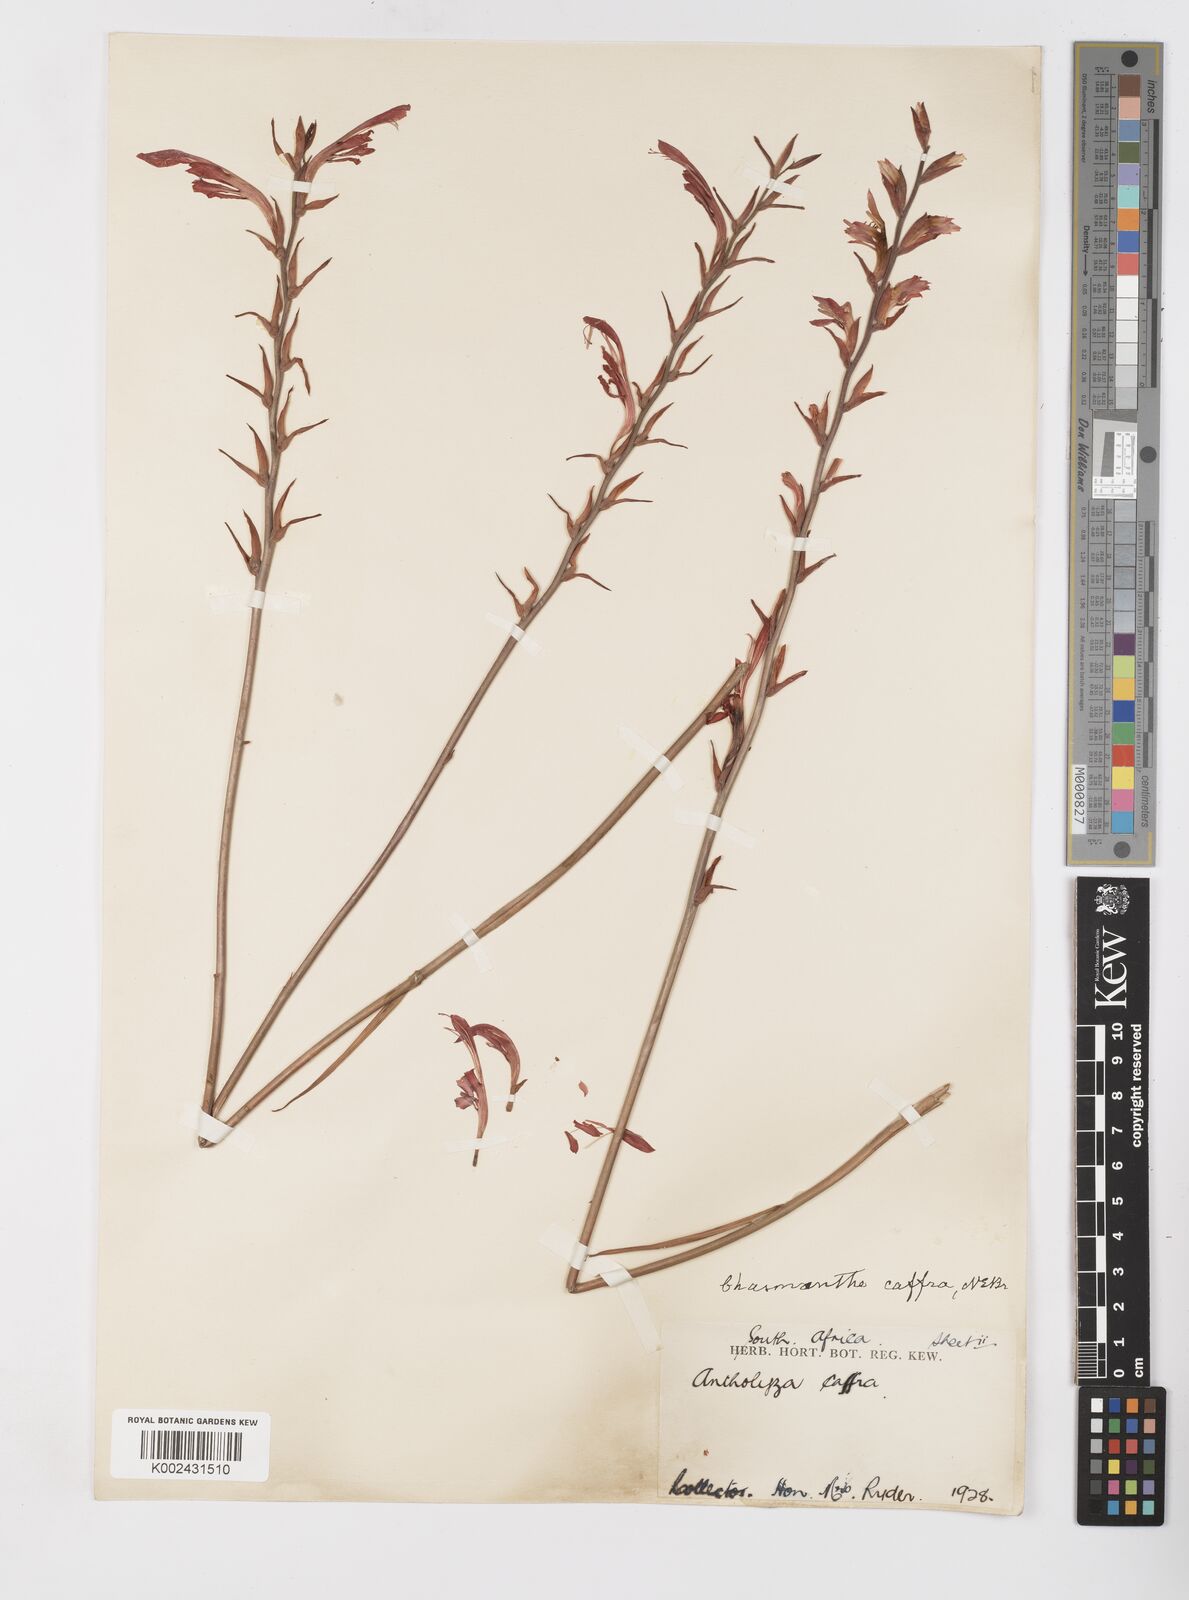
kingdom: Plantae
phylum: Tracheophyta
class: Liliopsida
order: Asparagales
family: Iridaceae
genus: Tritoniopsis
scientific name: Tritoniopsis caffra
